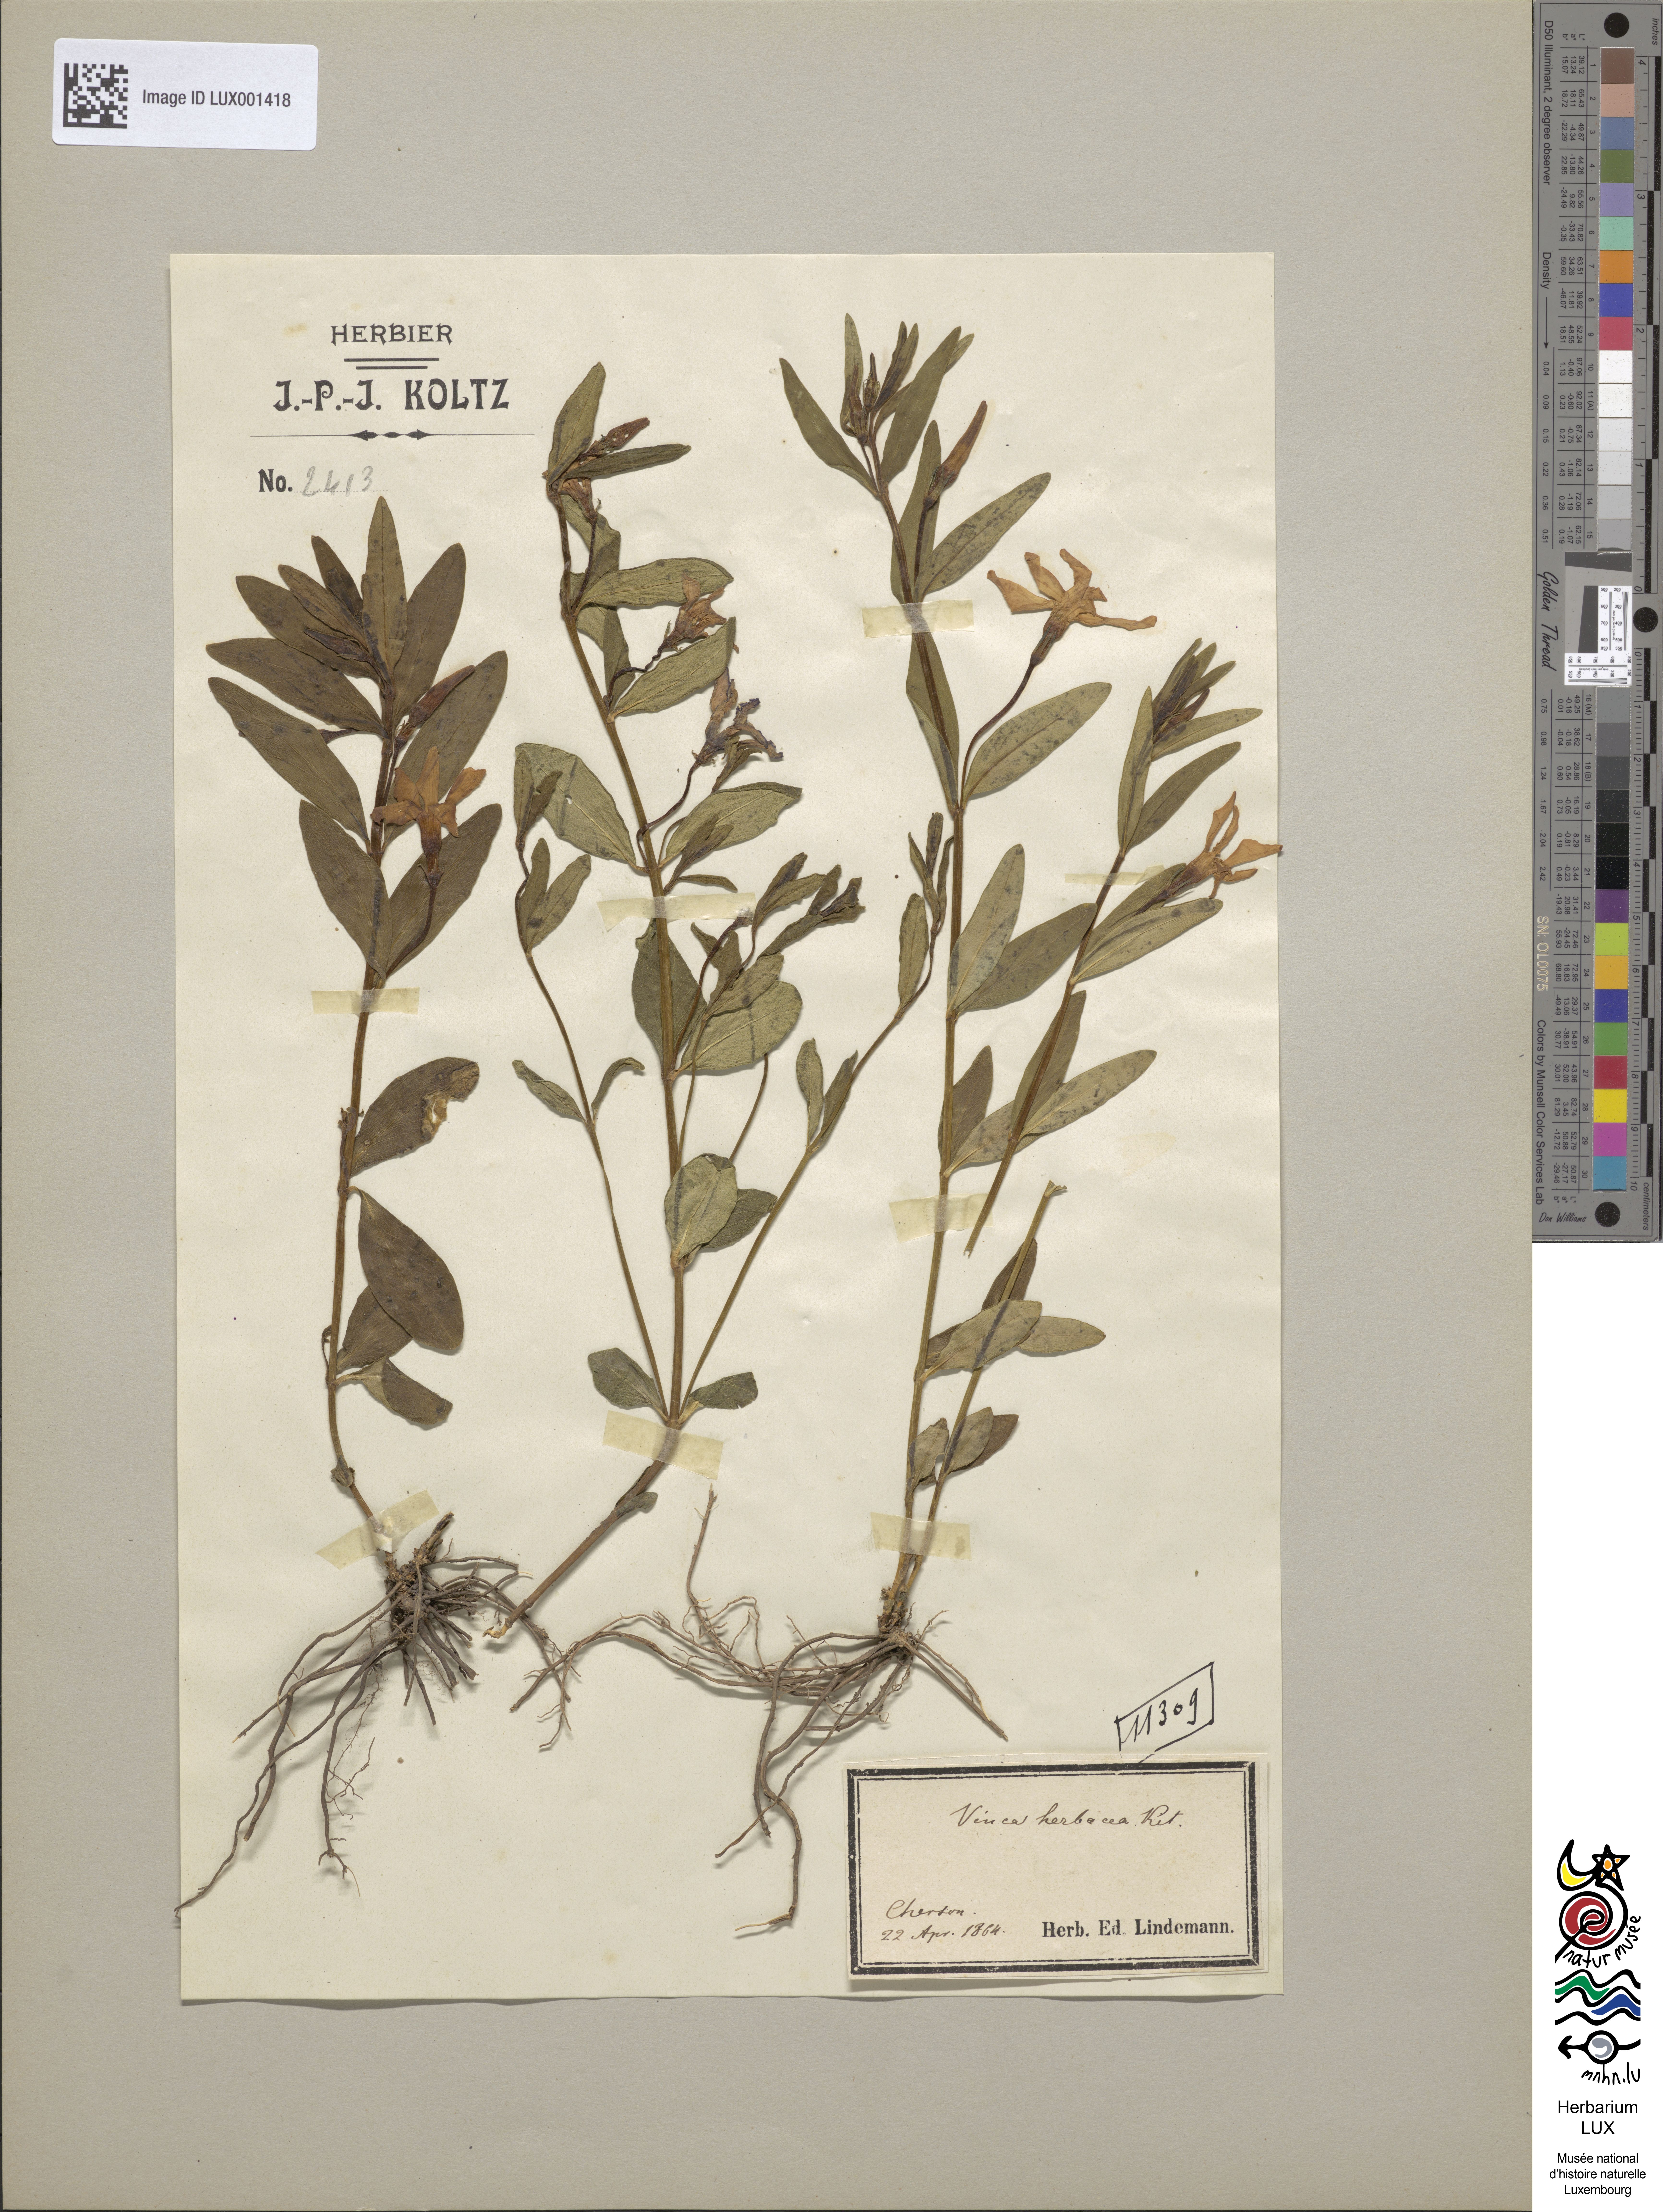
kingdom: Plantae
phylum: Tracheophyta
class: Magnoliopsida
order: Gentianales
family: Apocynaceae
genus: Vinca
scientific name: Vinca herbacea
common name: Herbaceous periwinkle
